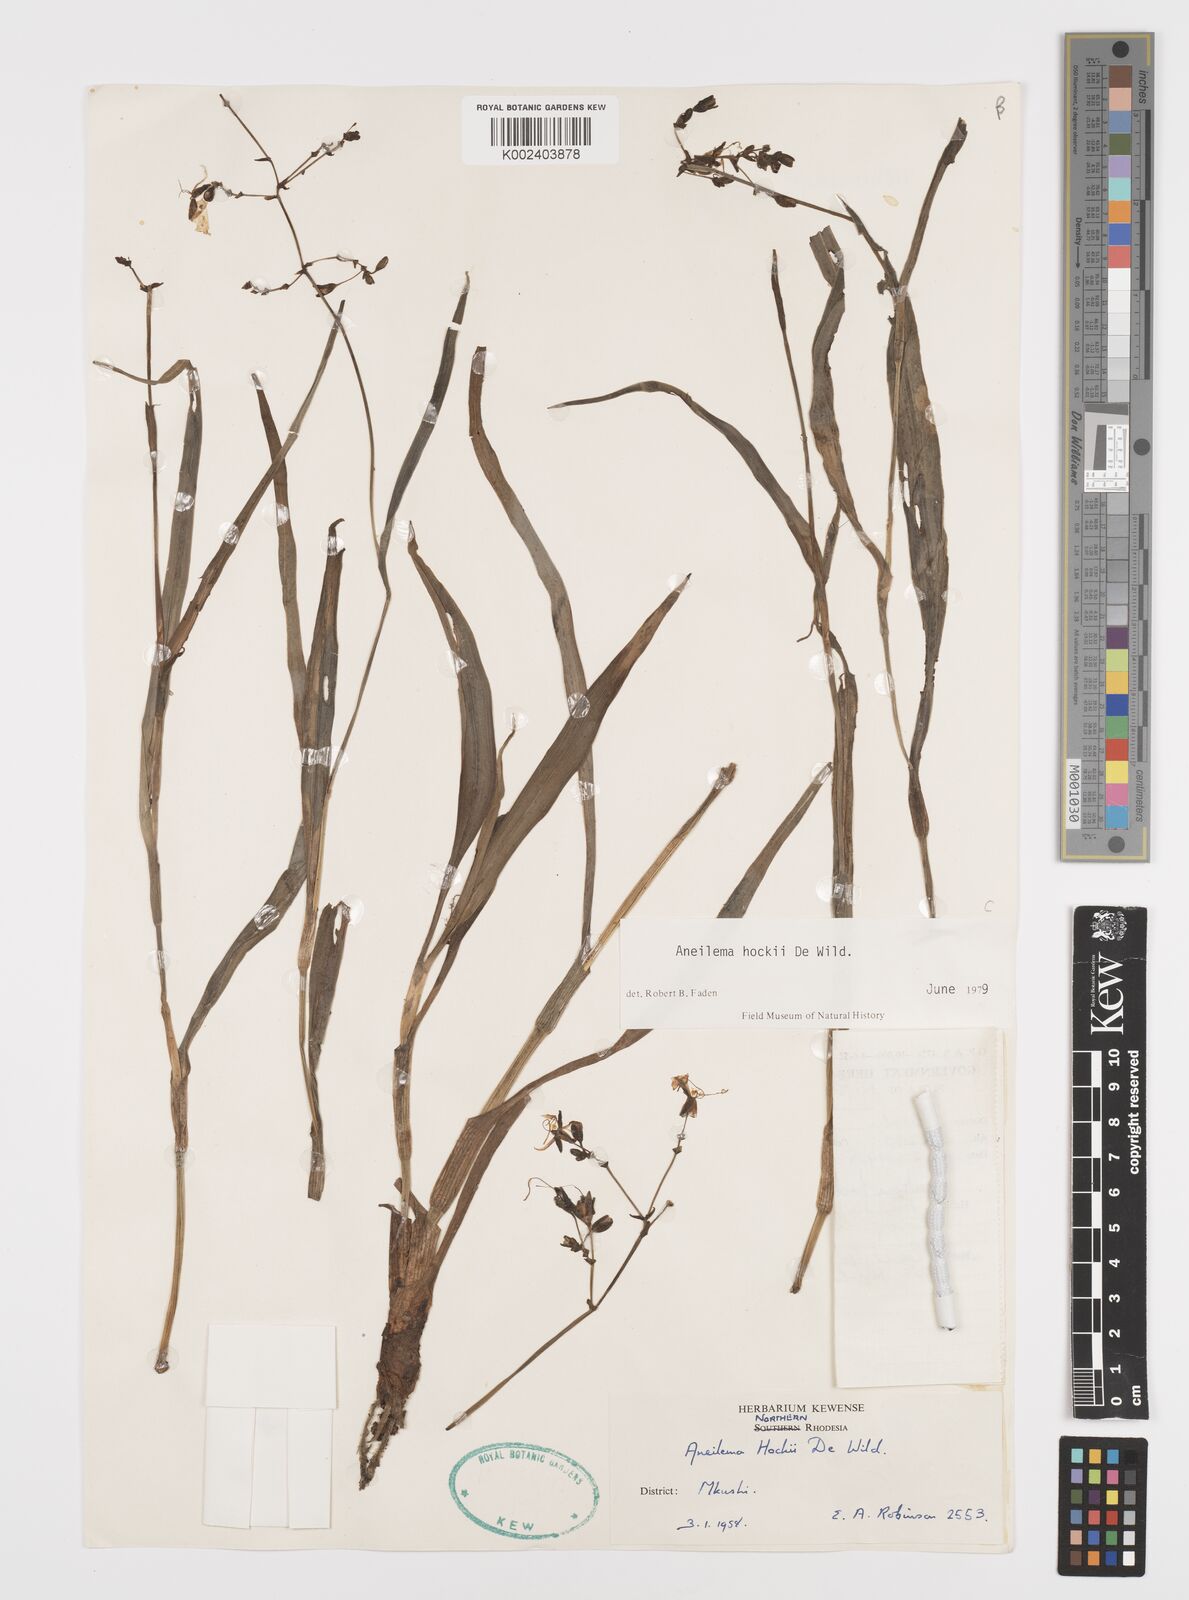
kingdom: Plantae
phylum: Tracheophyta
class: Liliopsida
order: Commelinales
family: Commelinaceae
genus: Aneilema
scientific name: Aneilema hockii
